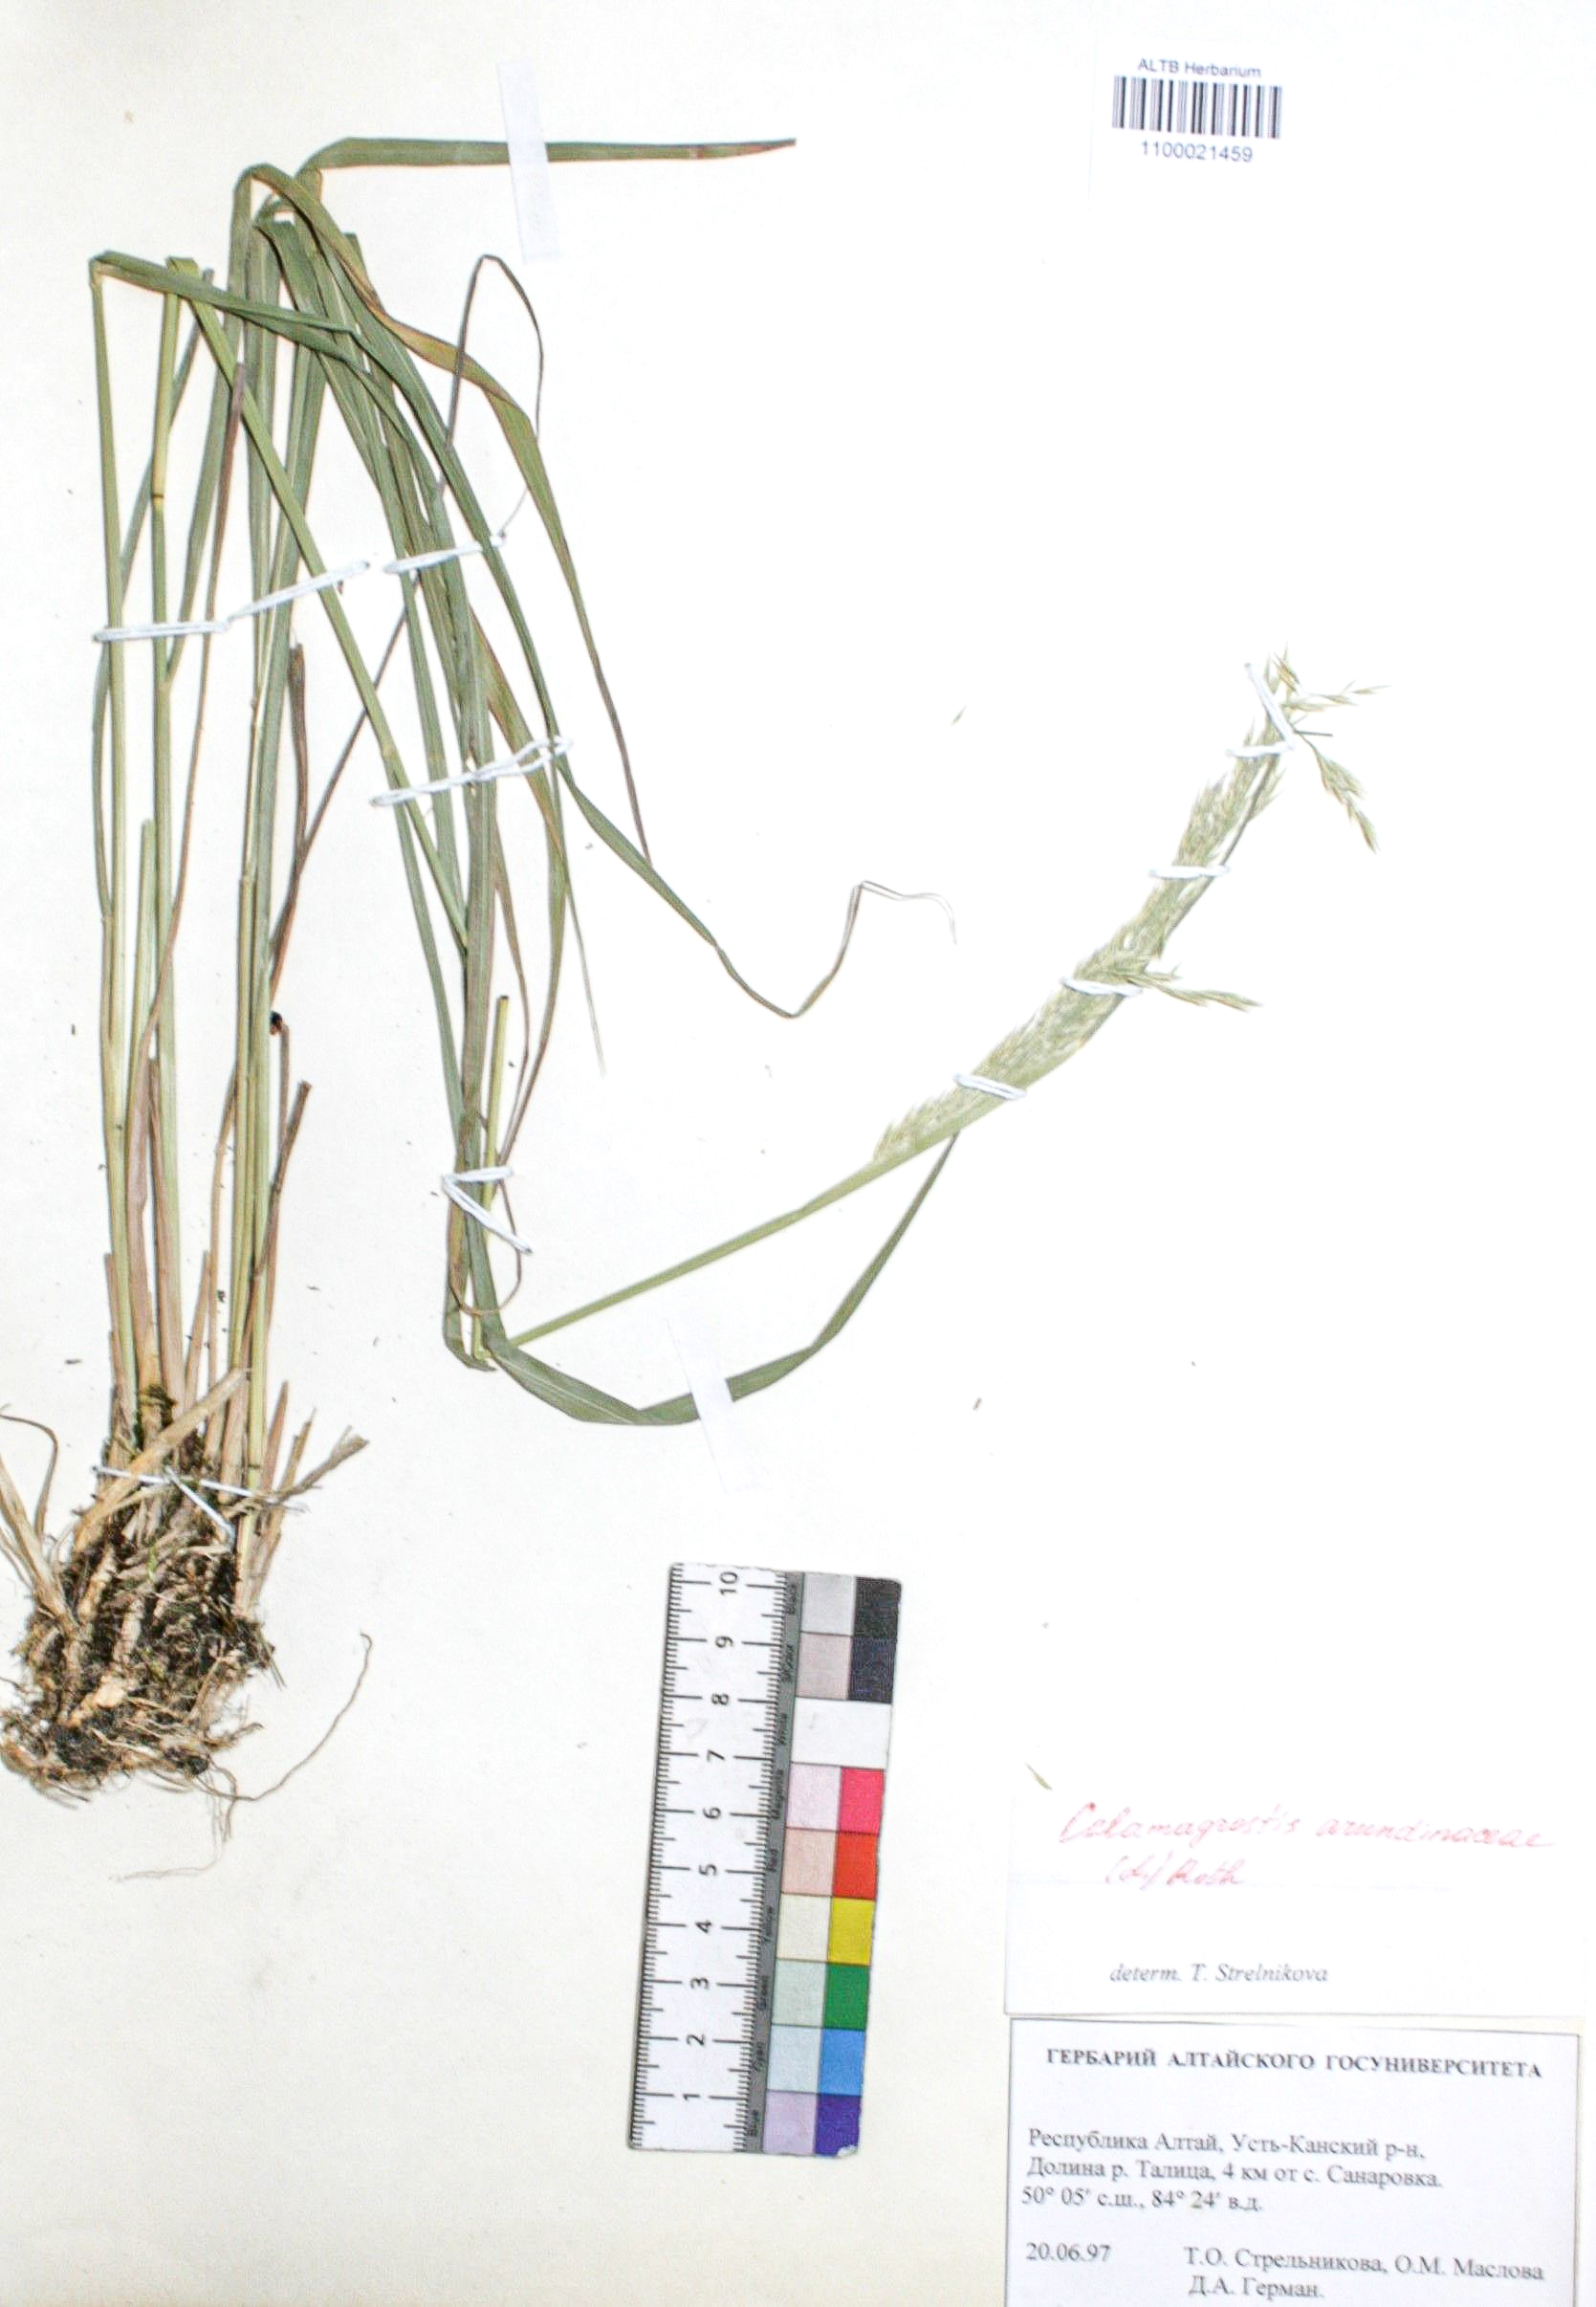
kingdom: Plantae
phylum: Tracheophyta
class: Liliopsida
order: Poales
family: Poaceae
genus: Calamagrostis
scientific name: Calamagrostis arundinacea
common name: Metskastik
